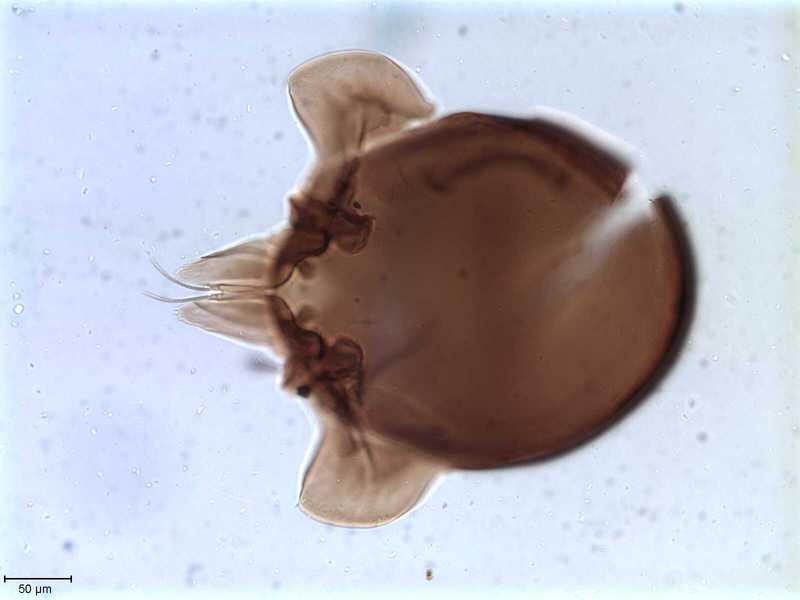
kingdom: Animalia
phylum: Arthropoda
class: Arachnida
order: Sarcoptiformes
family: Tegoribatidae
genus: Plakoribates
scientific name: Plakoribates multicuspidatus
